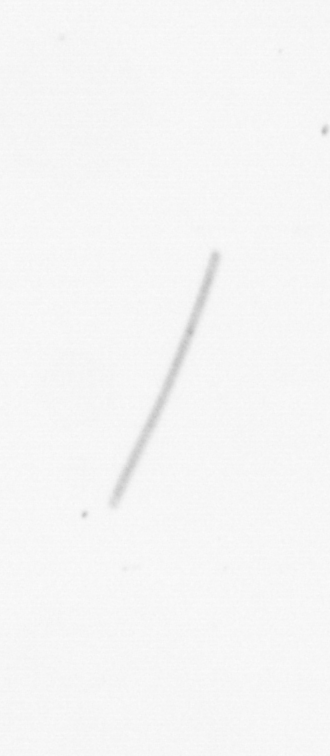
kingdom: Chromista
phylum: Ochrophyta
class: Bacillariophyceae
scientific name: Bacillariophyceae
